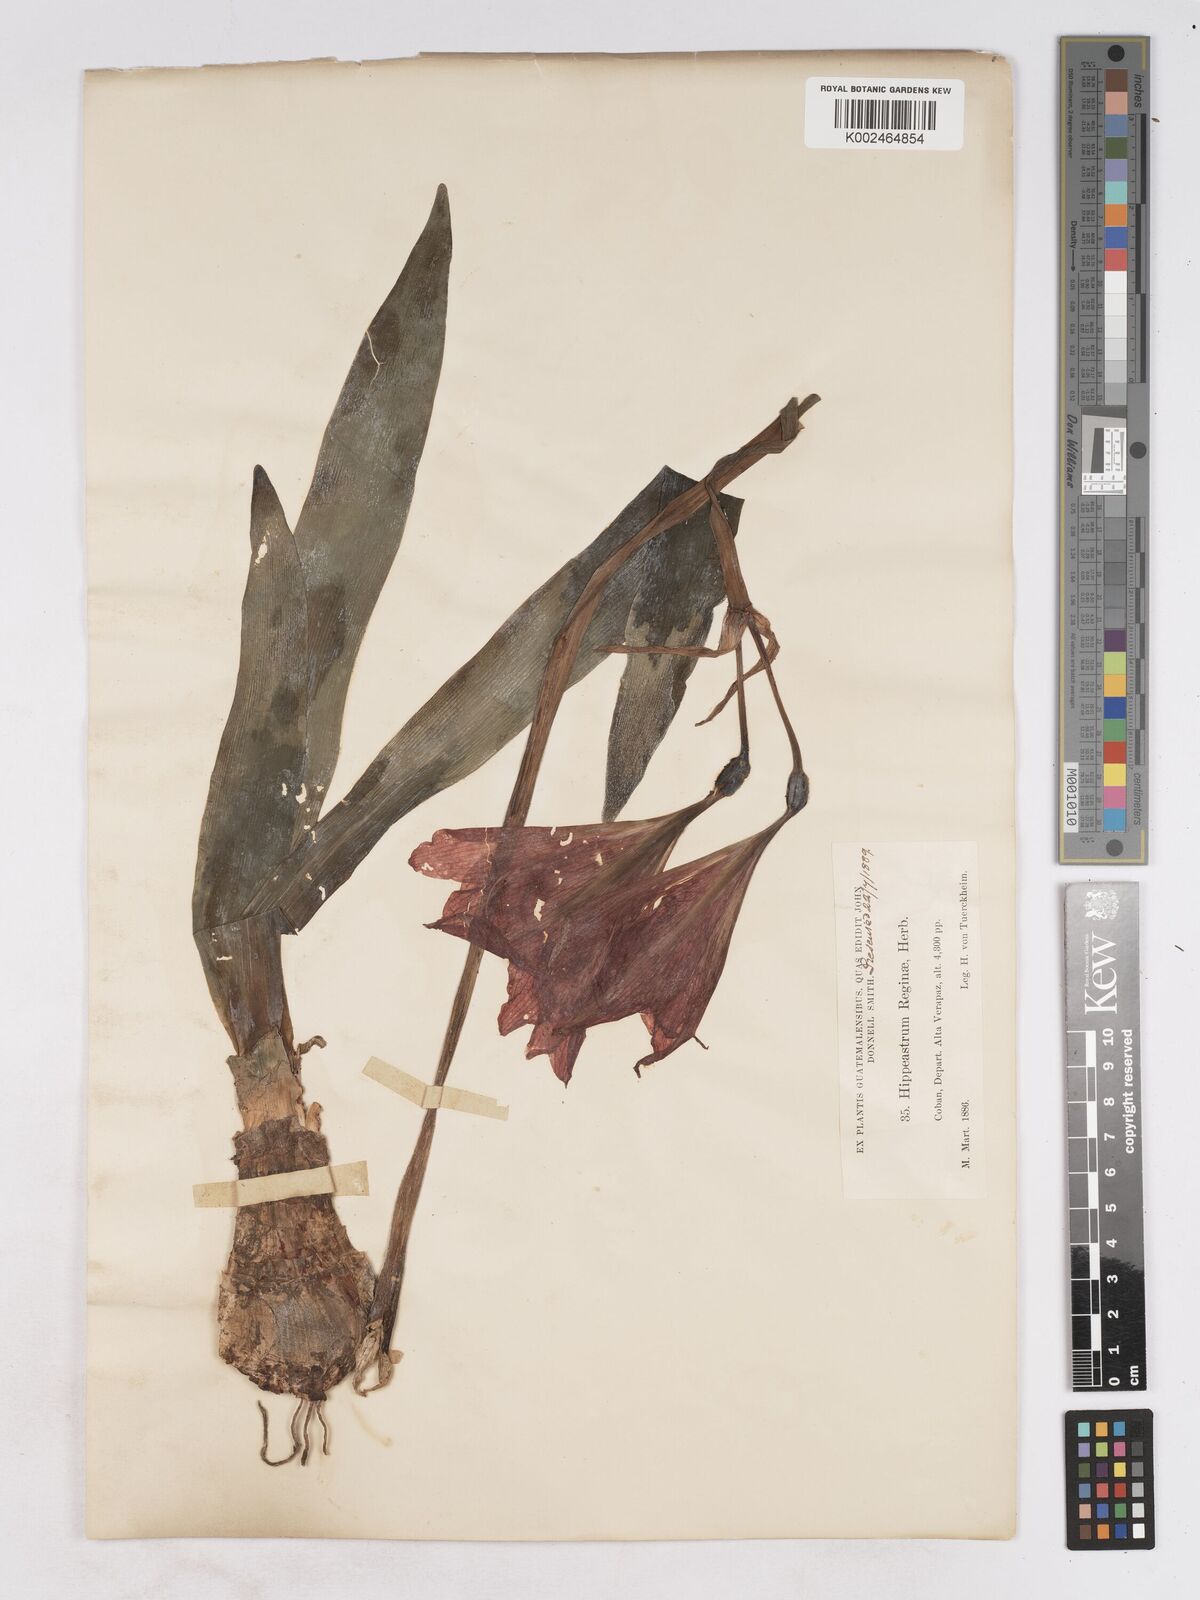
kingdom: Plantae
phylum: Tracheophyta
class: Liliopsida
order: Asparagales
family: Amaryllidaceae
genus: Hippeastrum
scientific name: Hippeastrum reginae
